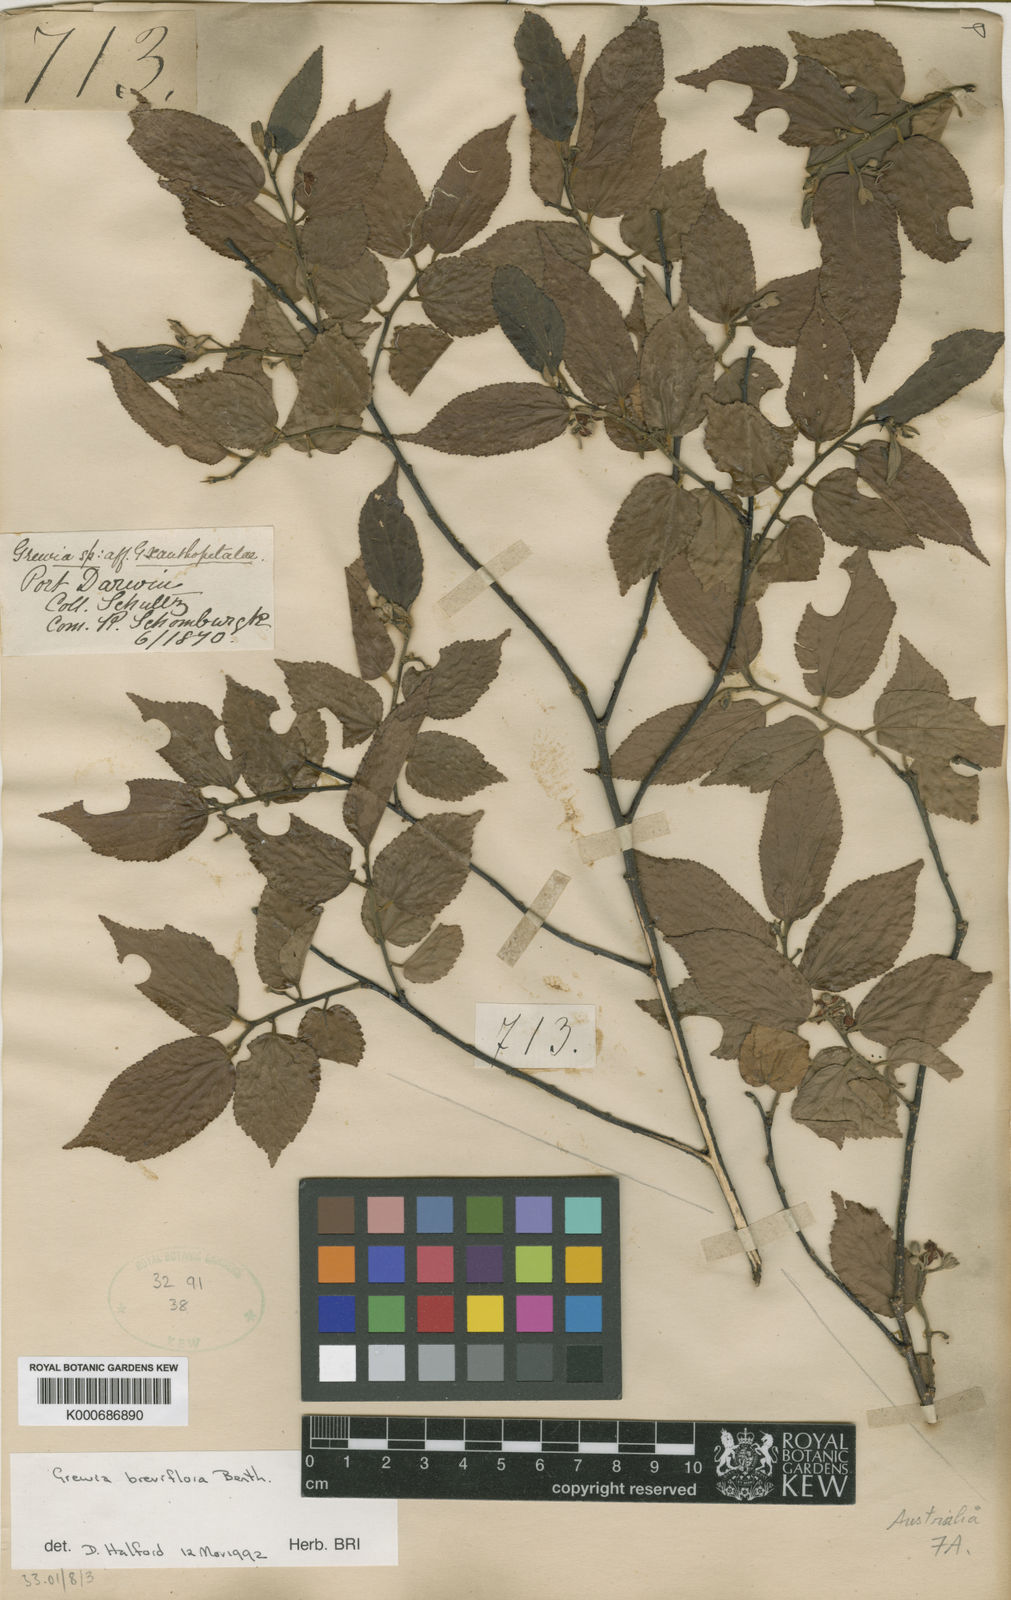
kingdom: Plantae
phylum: Tracheophyta
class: Magnoliopsida
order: Malvales
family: Malvaceae
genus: Grewia
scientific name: Grewia breviflora
